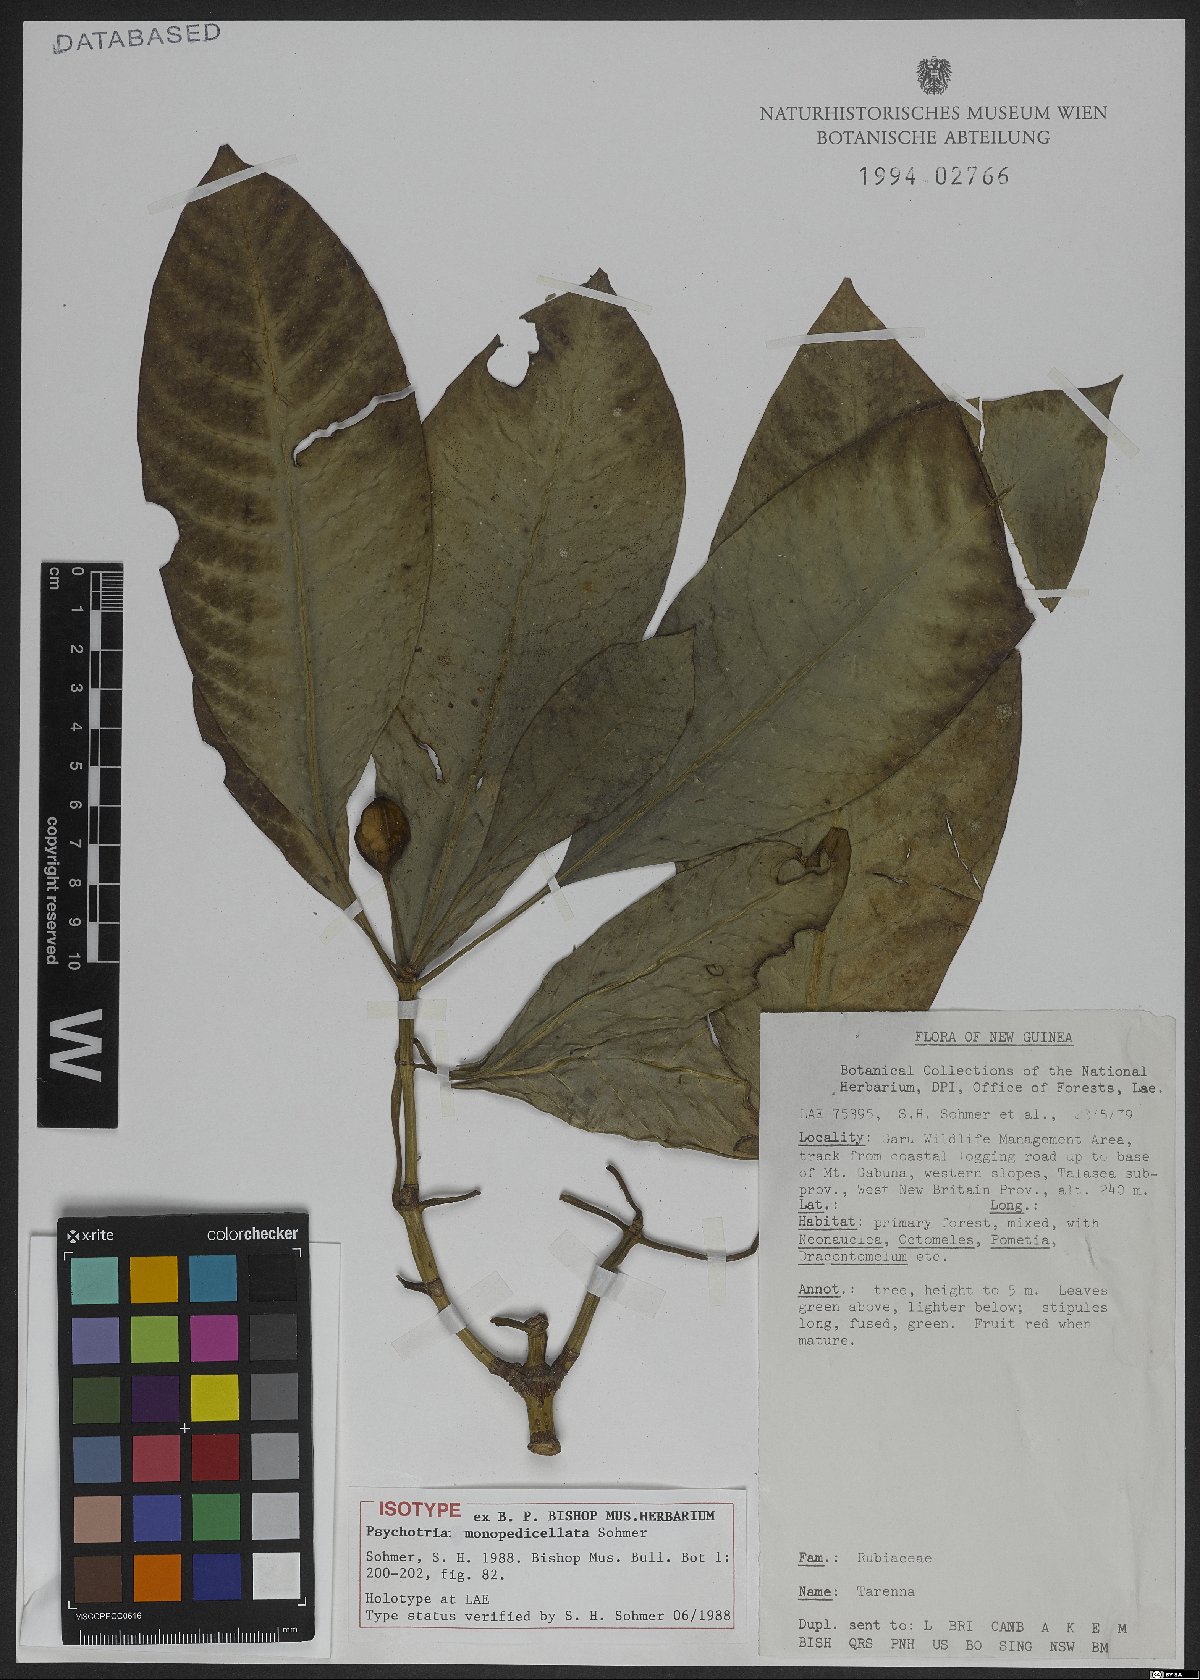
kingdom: Plantae
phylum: Tracheophyta
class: Magnoliopsida
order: Gentianales
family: Rubiaceae
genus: Eumachia
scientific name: Eumachia monopedicellata
